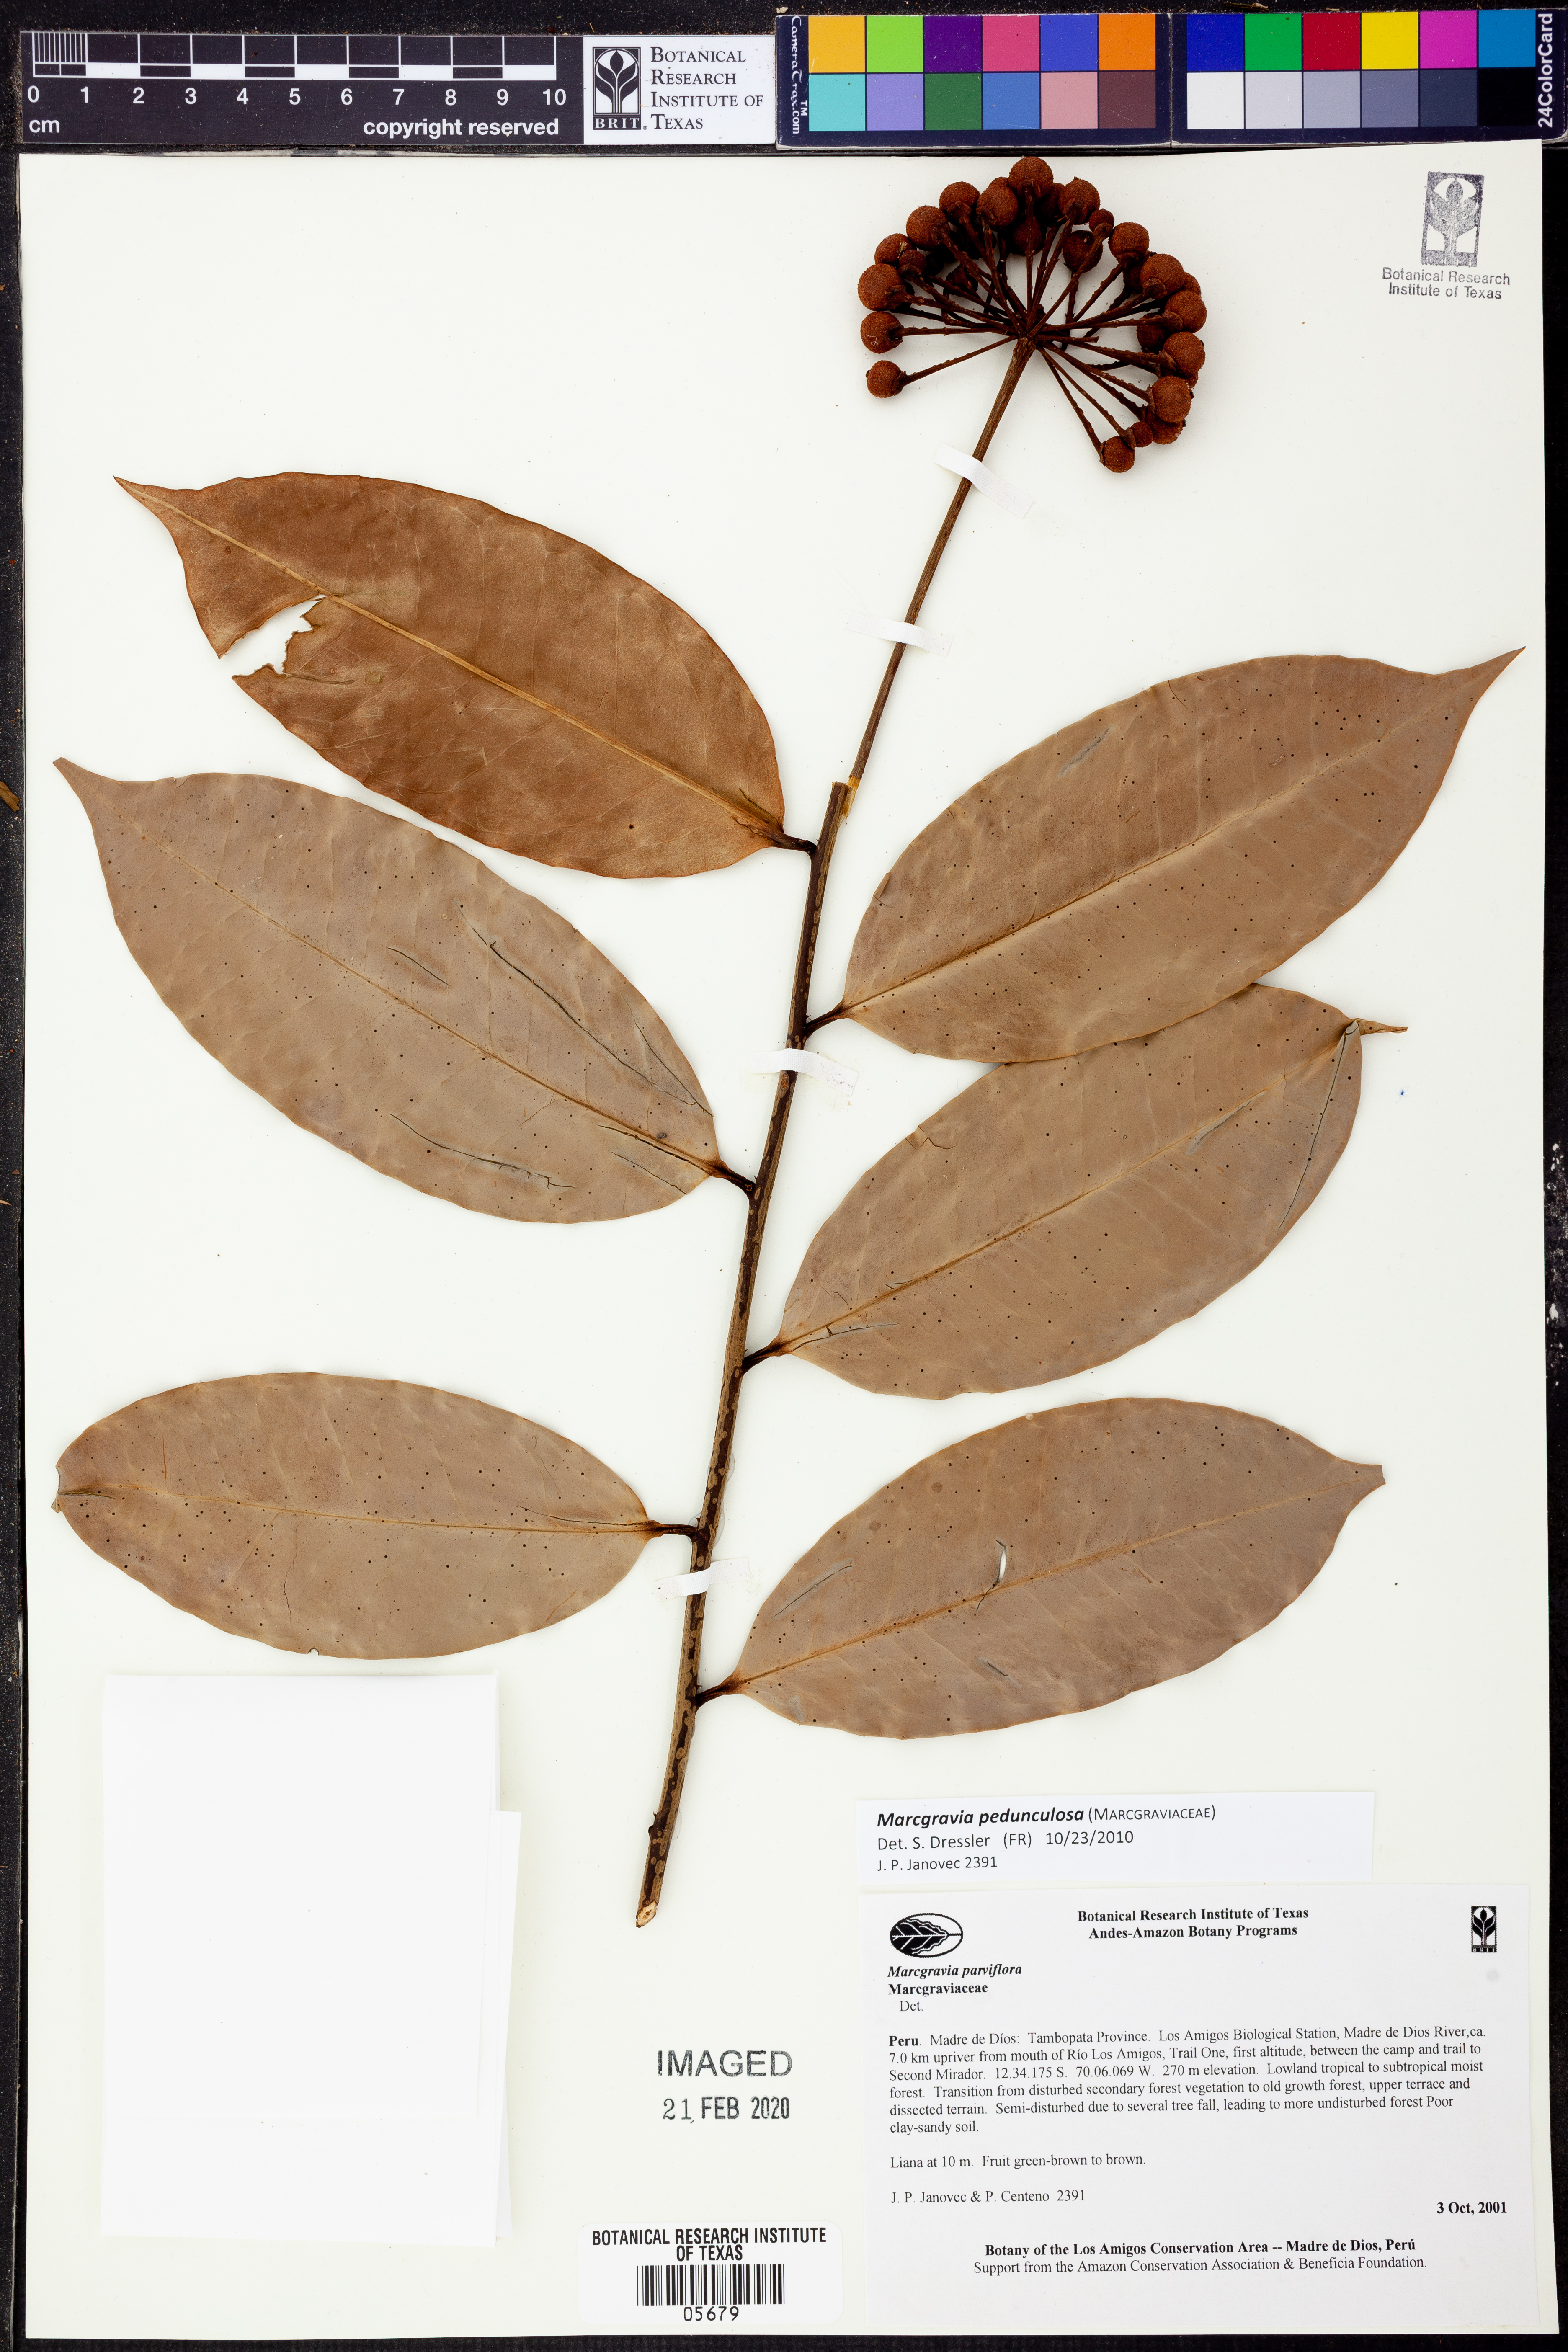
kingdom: Plantae
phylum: Tracheophyta
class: Magnoliopsida
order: Ericales
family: Marcgraviaceae
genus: Marcgravia
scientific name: Marcgravia
